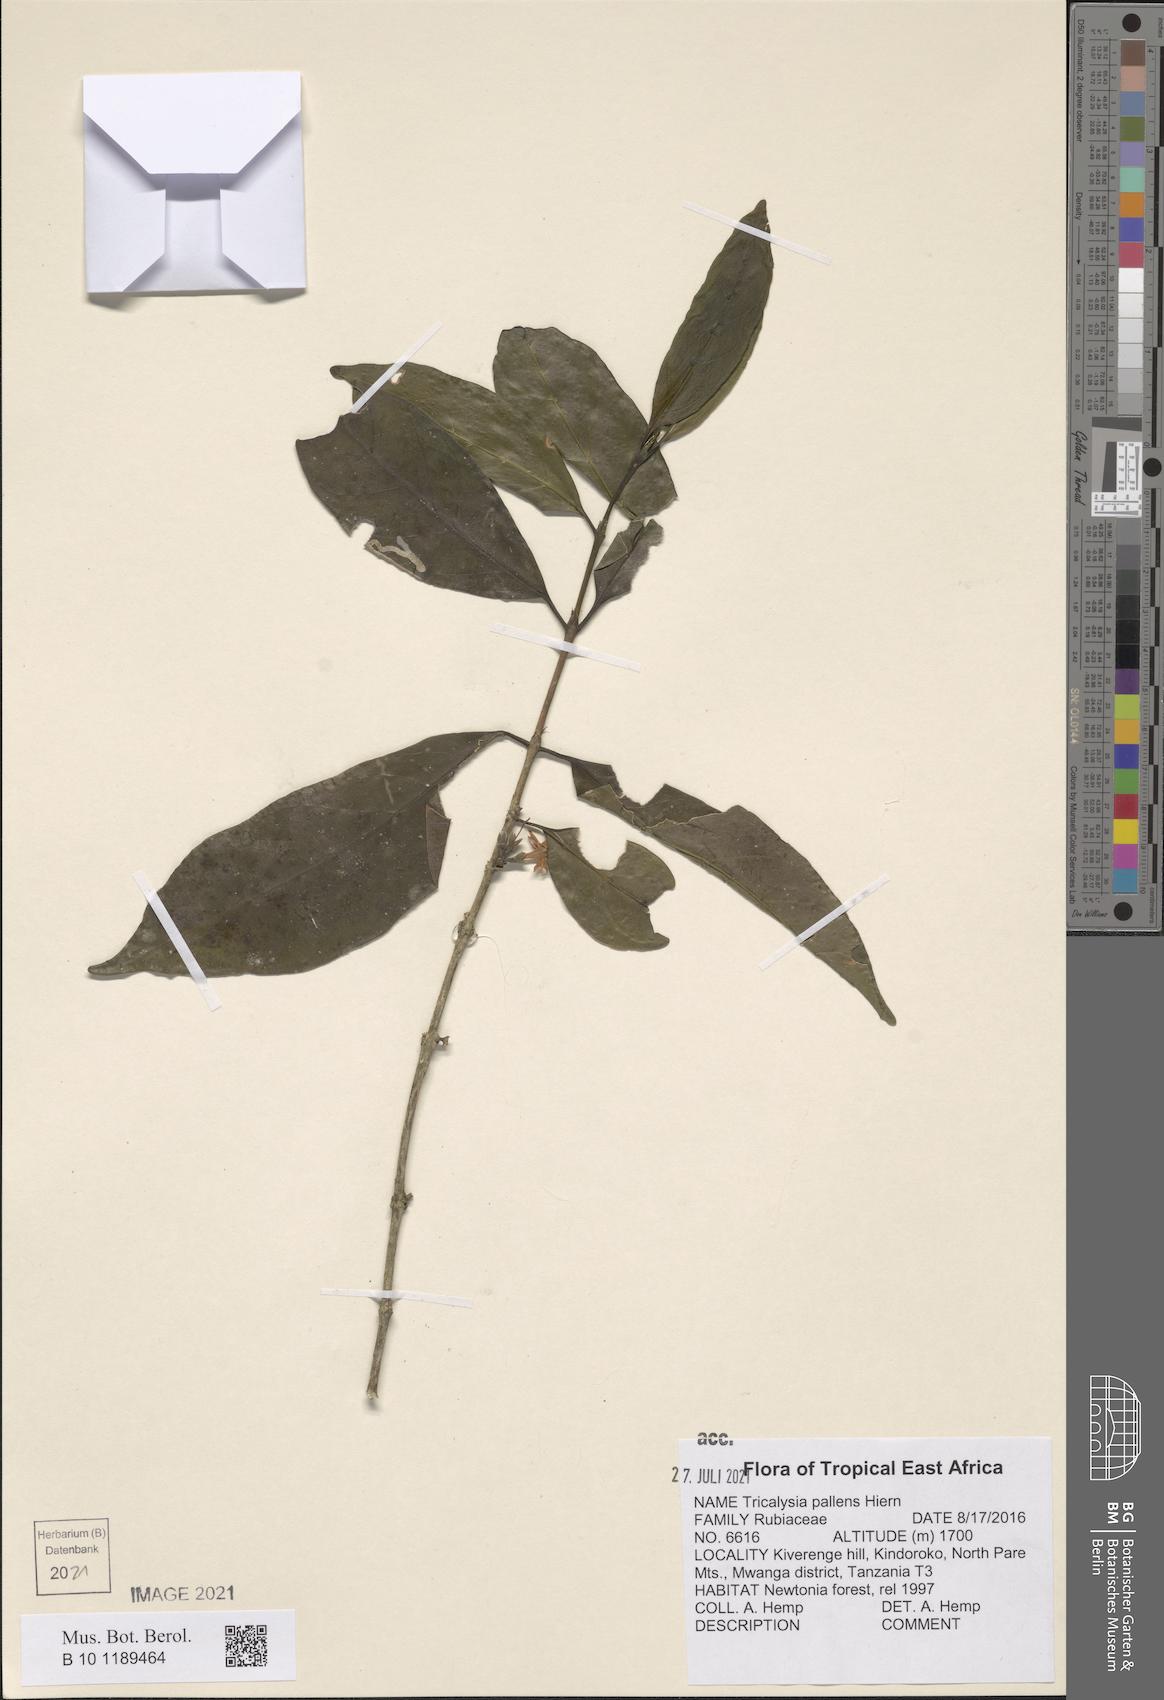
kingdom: Plantae
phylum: Tracheophyta
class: Magnoliopsida
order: Gentianales
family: Rubiaceae
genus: Tricalysia
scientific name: Tricalysia pallens
